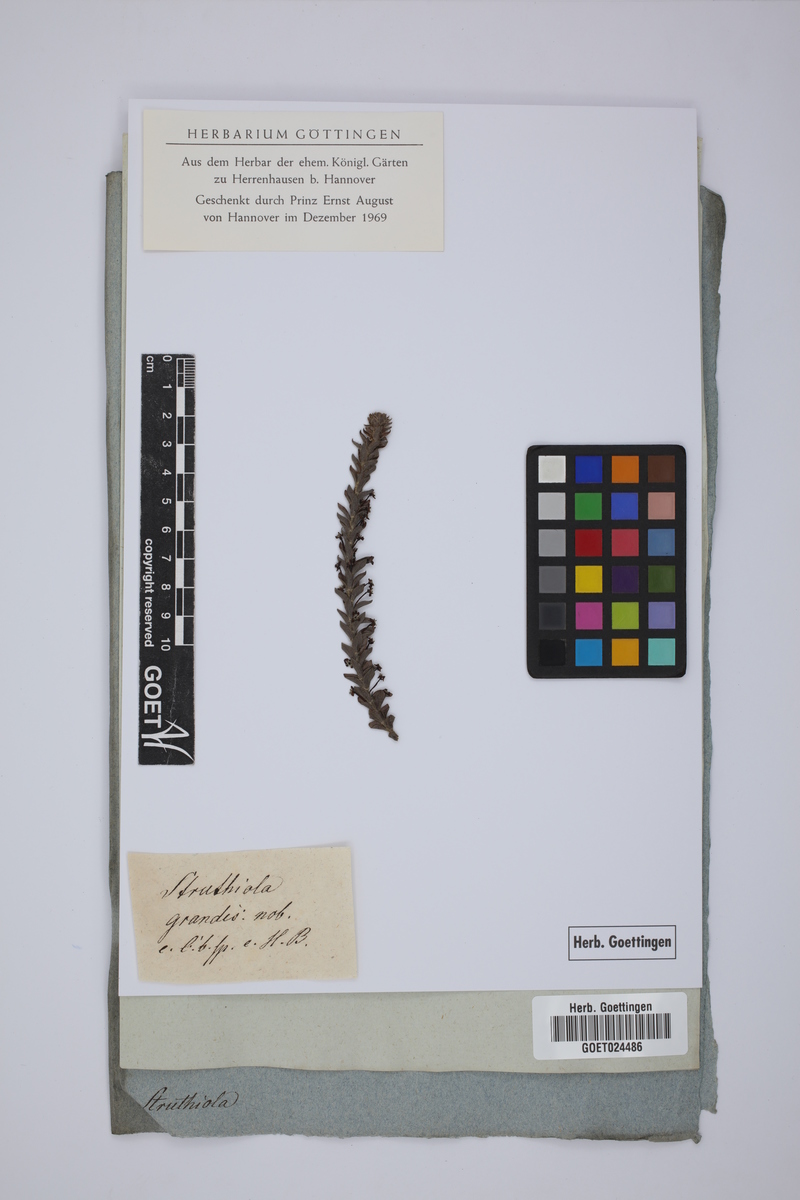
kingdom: Plantae
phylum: Tracheophyta
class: Magnoliopsida
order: Malvales
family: Thymelaeaceae
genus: Struthiola
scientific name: Struthiola hirsuta
